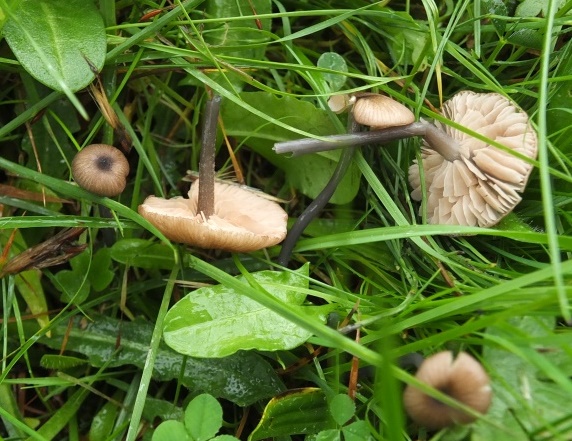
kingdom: Fungi
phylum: Basidiomycota
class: Agaricomycetes
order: Agaricales
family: Entolomataceae
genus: Entoloma
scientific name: Entoloma poliopus
